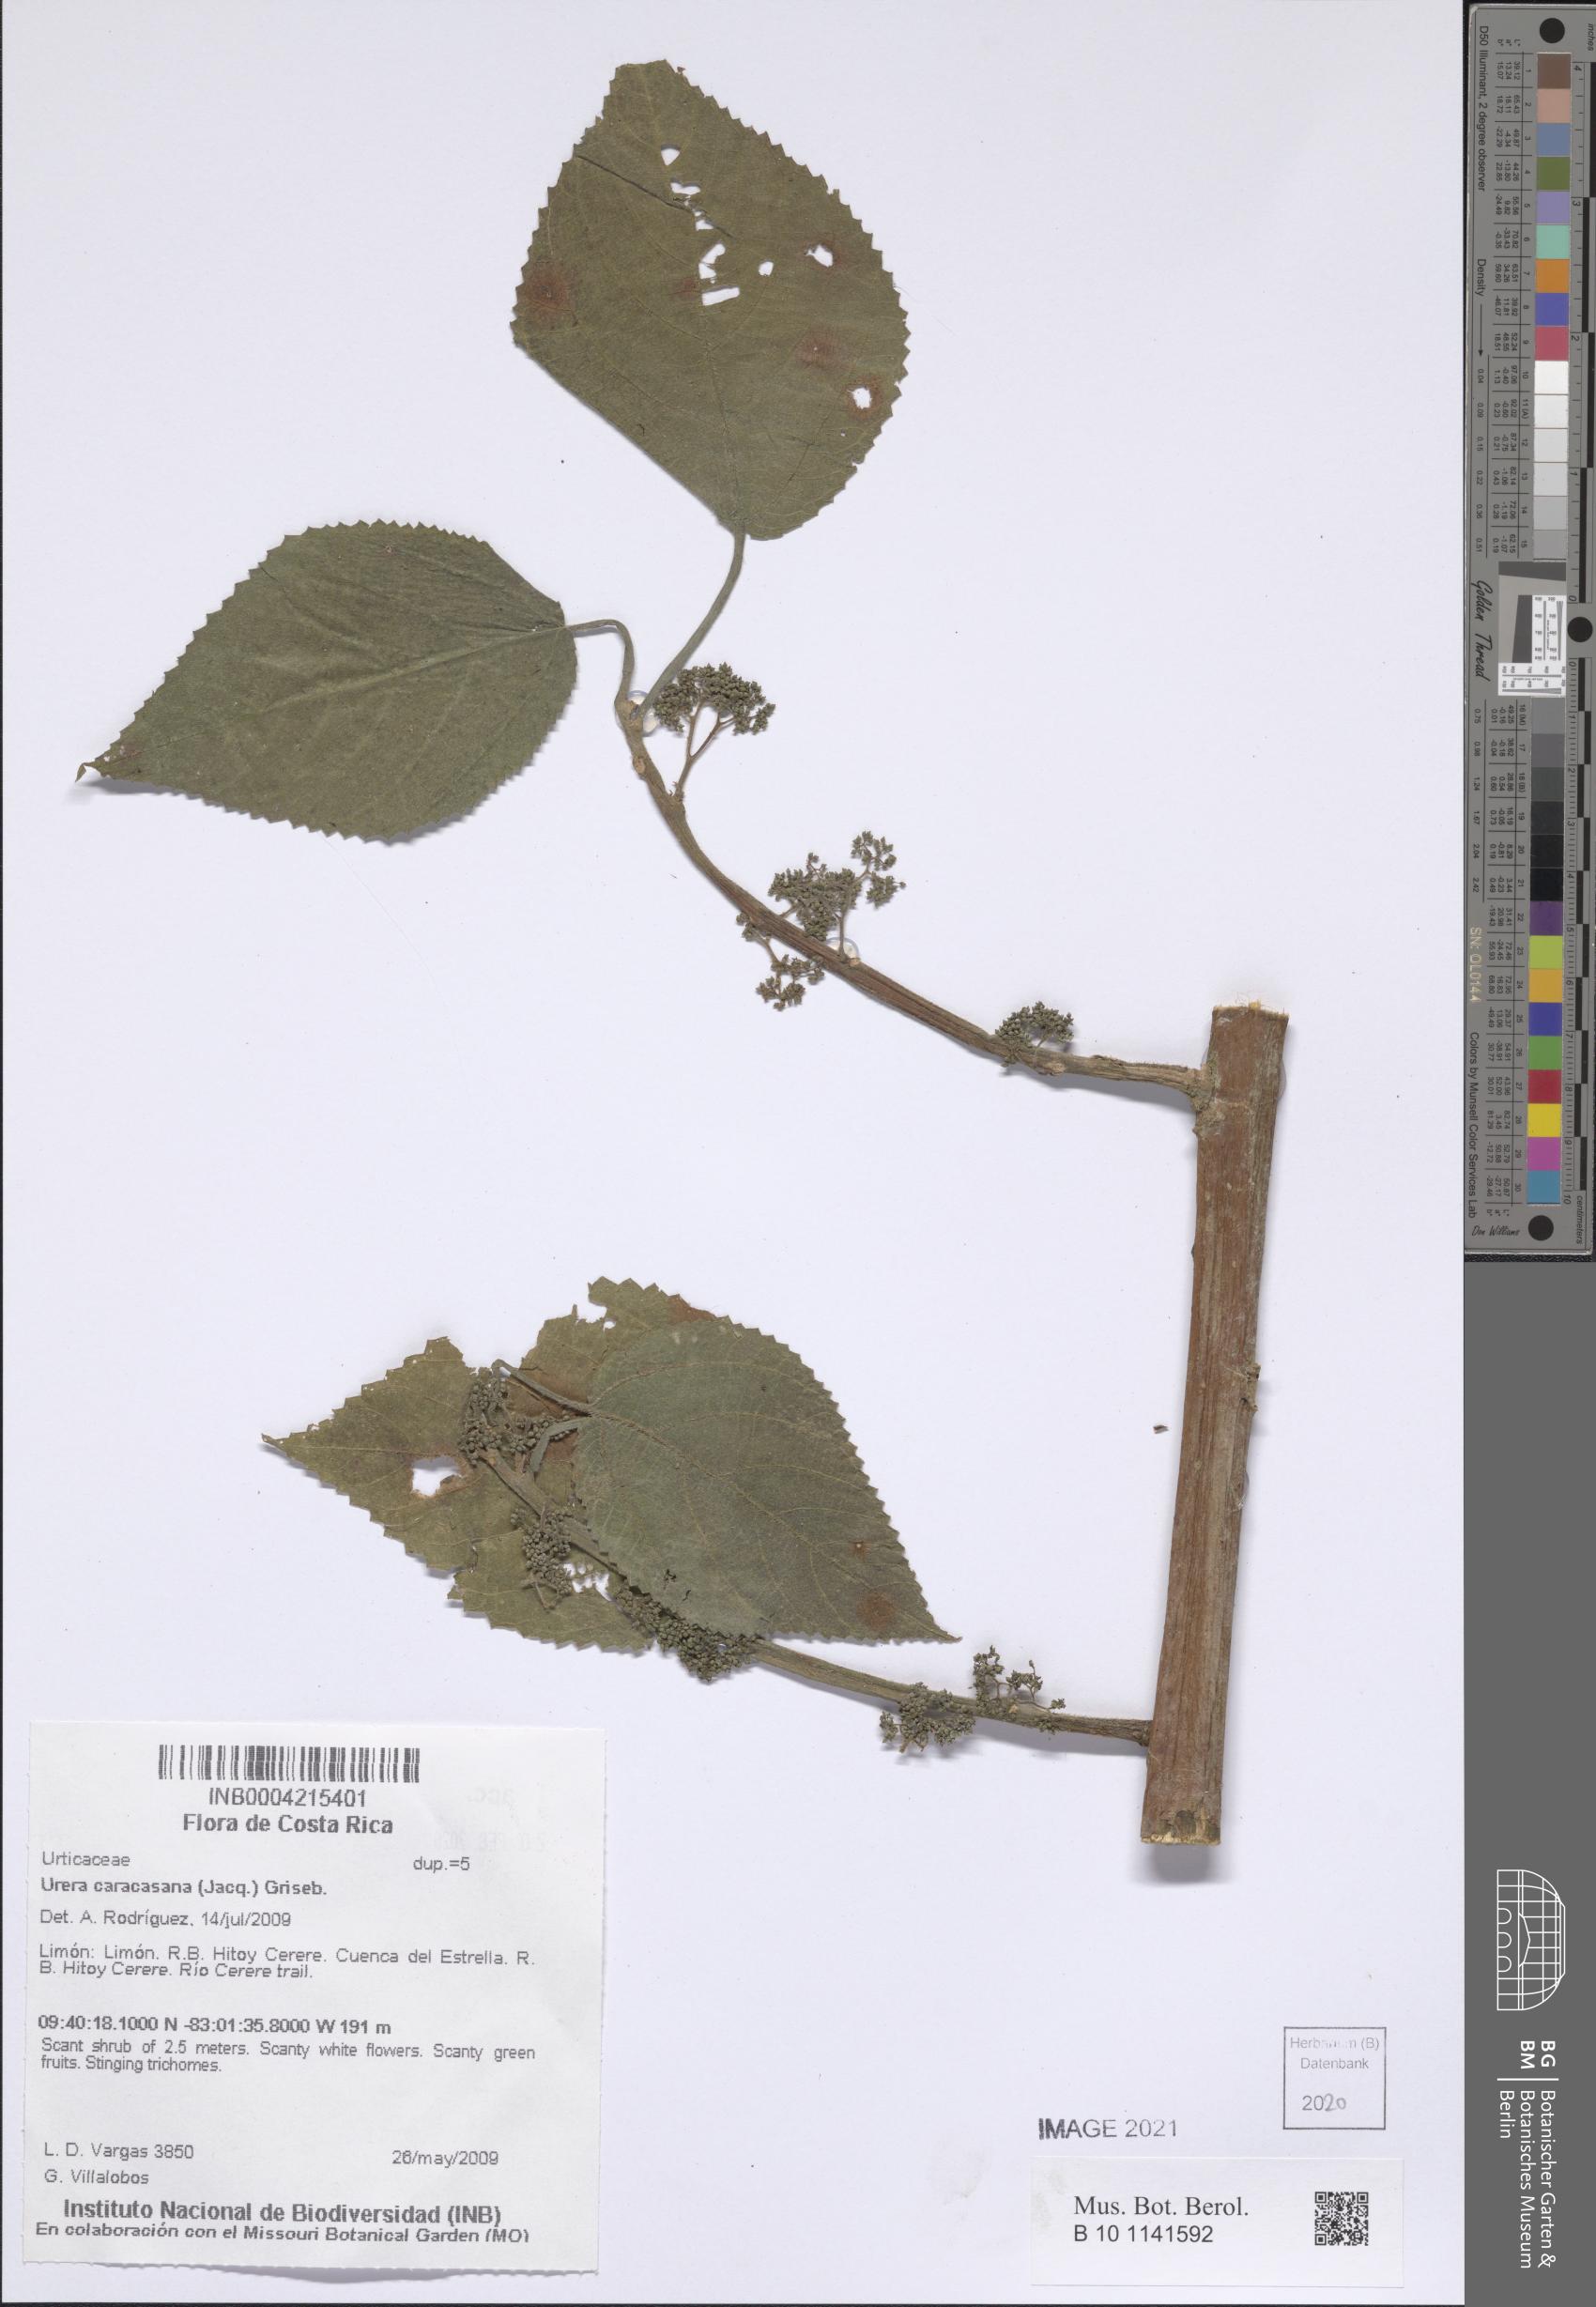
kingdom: Plantae
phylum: Tracheophyta
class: Magnoliopsida
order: Rosales
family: Urticaceae
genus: Urera
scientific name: Urera caracasana
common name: Flameberry
